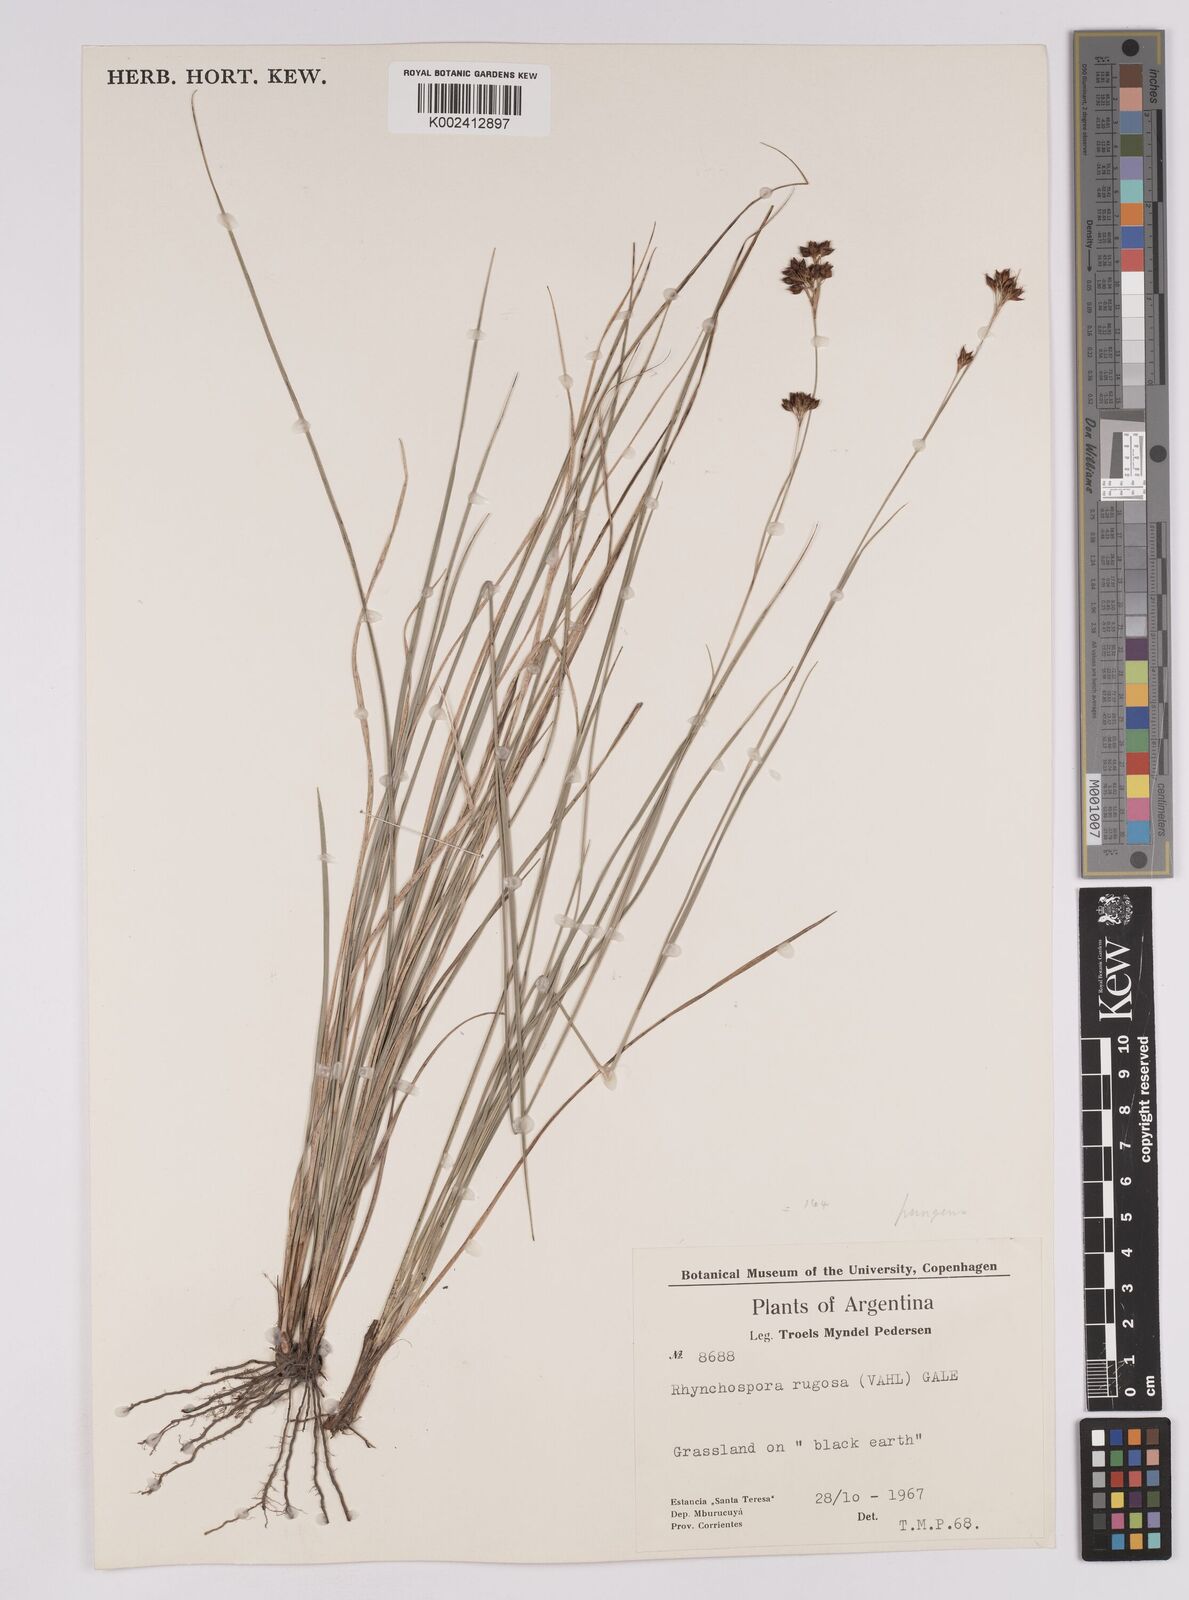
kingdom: Plantae
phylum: Tracheophyta
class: Liliopsida
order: Poales
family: Cyperaceae
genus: Rhynchospora
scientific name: Rhynchospora rugosa
